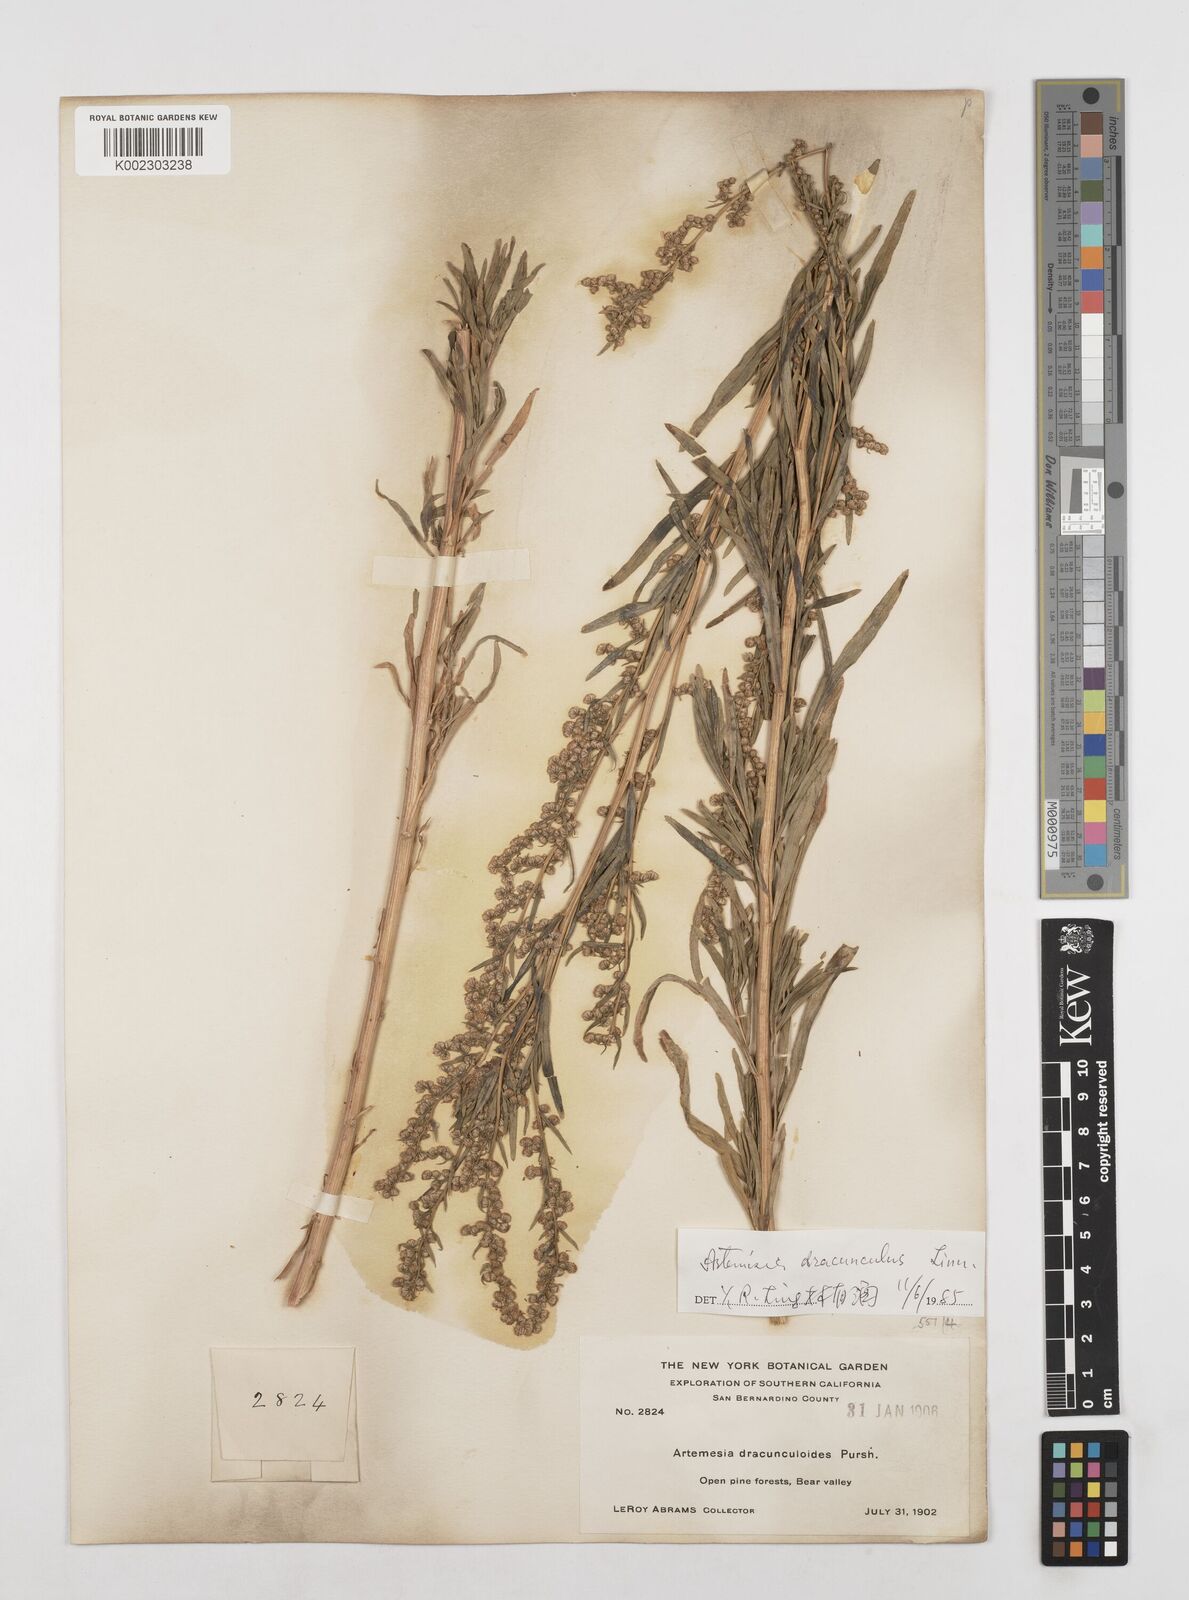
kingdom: Plantae
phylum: Tracheophyta
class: Magnoliopsida
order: Asterales
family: Asteraceae
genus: Artemisia
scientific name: Artemisia dracunculus
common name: Tarragon
